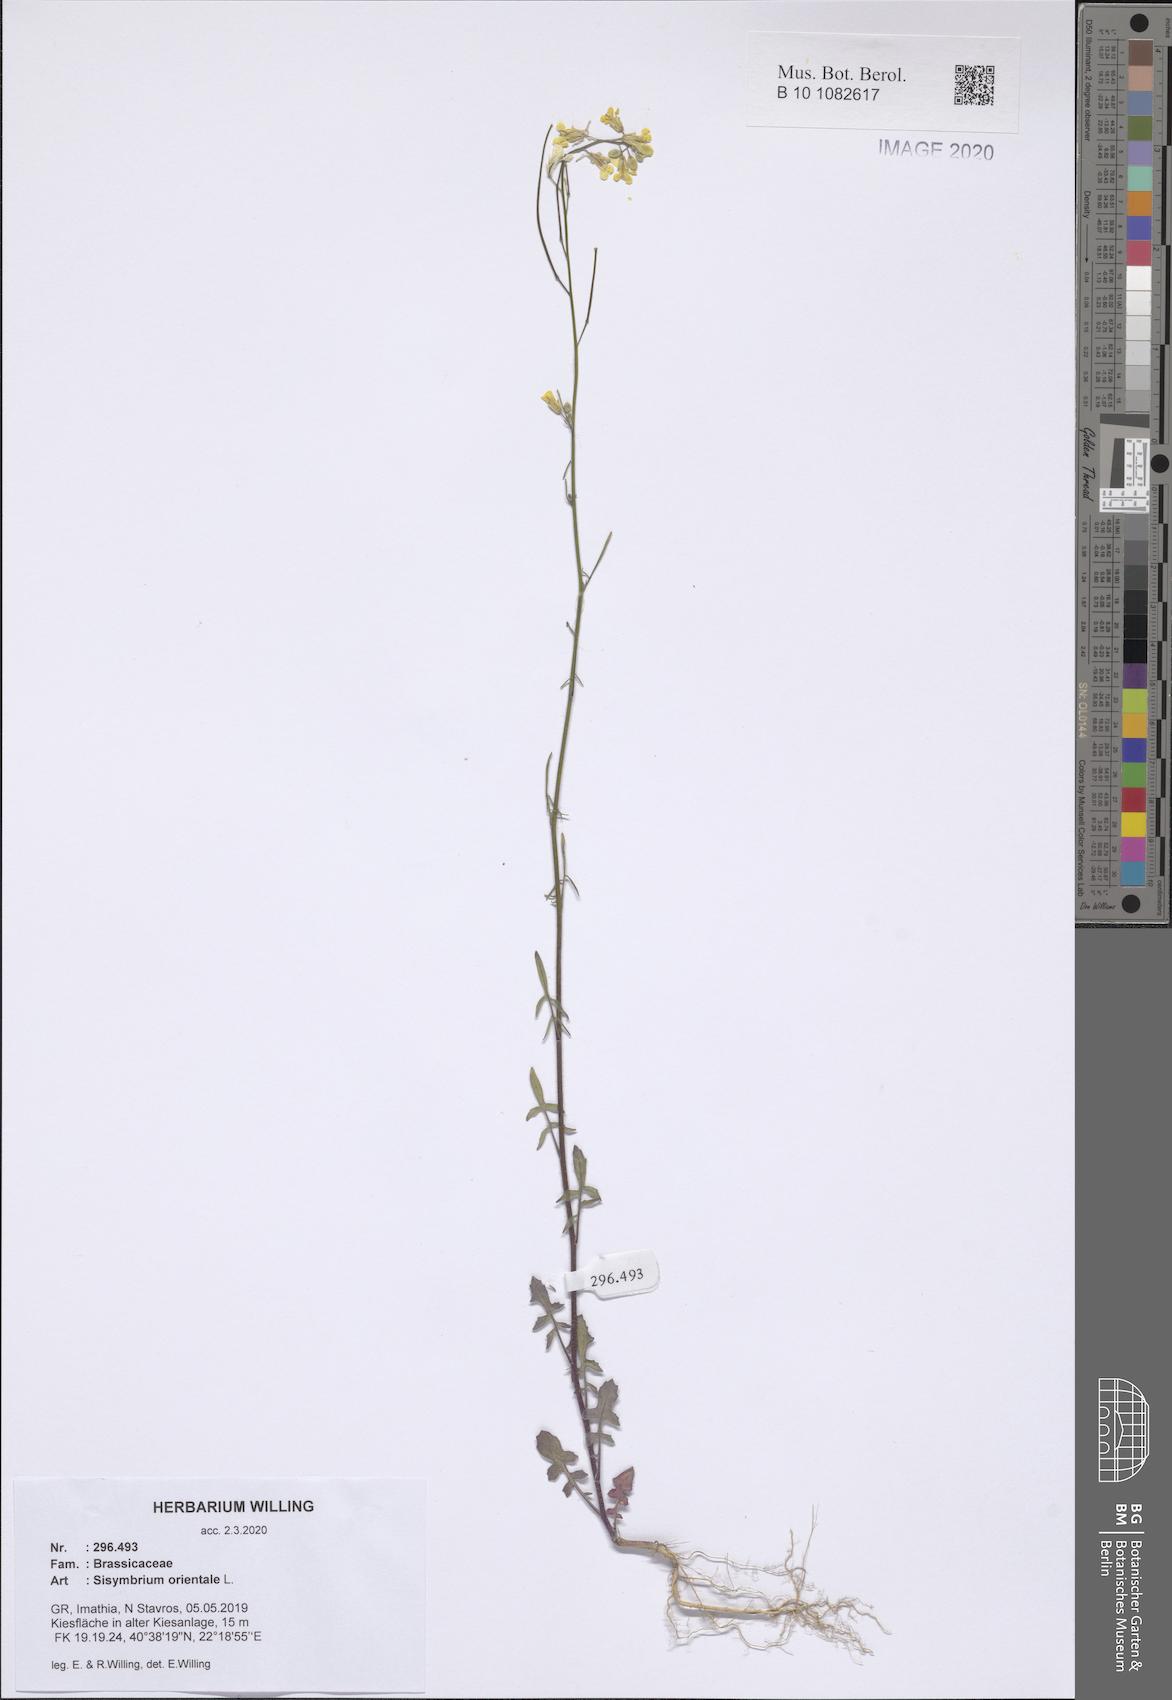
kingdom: Plantae
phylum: Tracheophyta
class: Magnoliopsida
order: Brassicales
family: Brassicaceae
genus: Sisymbrium
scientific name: Sisymbrium orientale
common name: Eastern rocket
